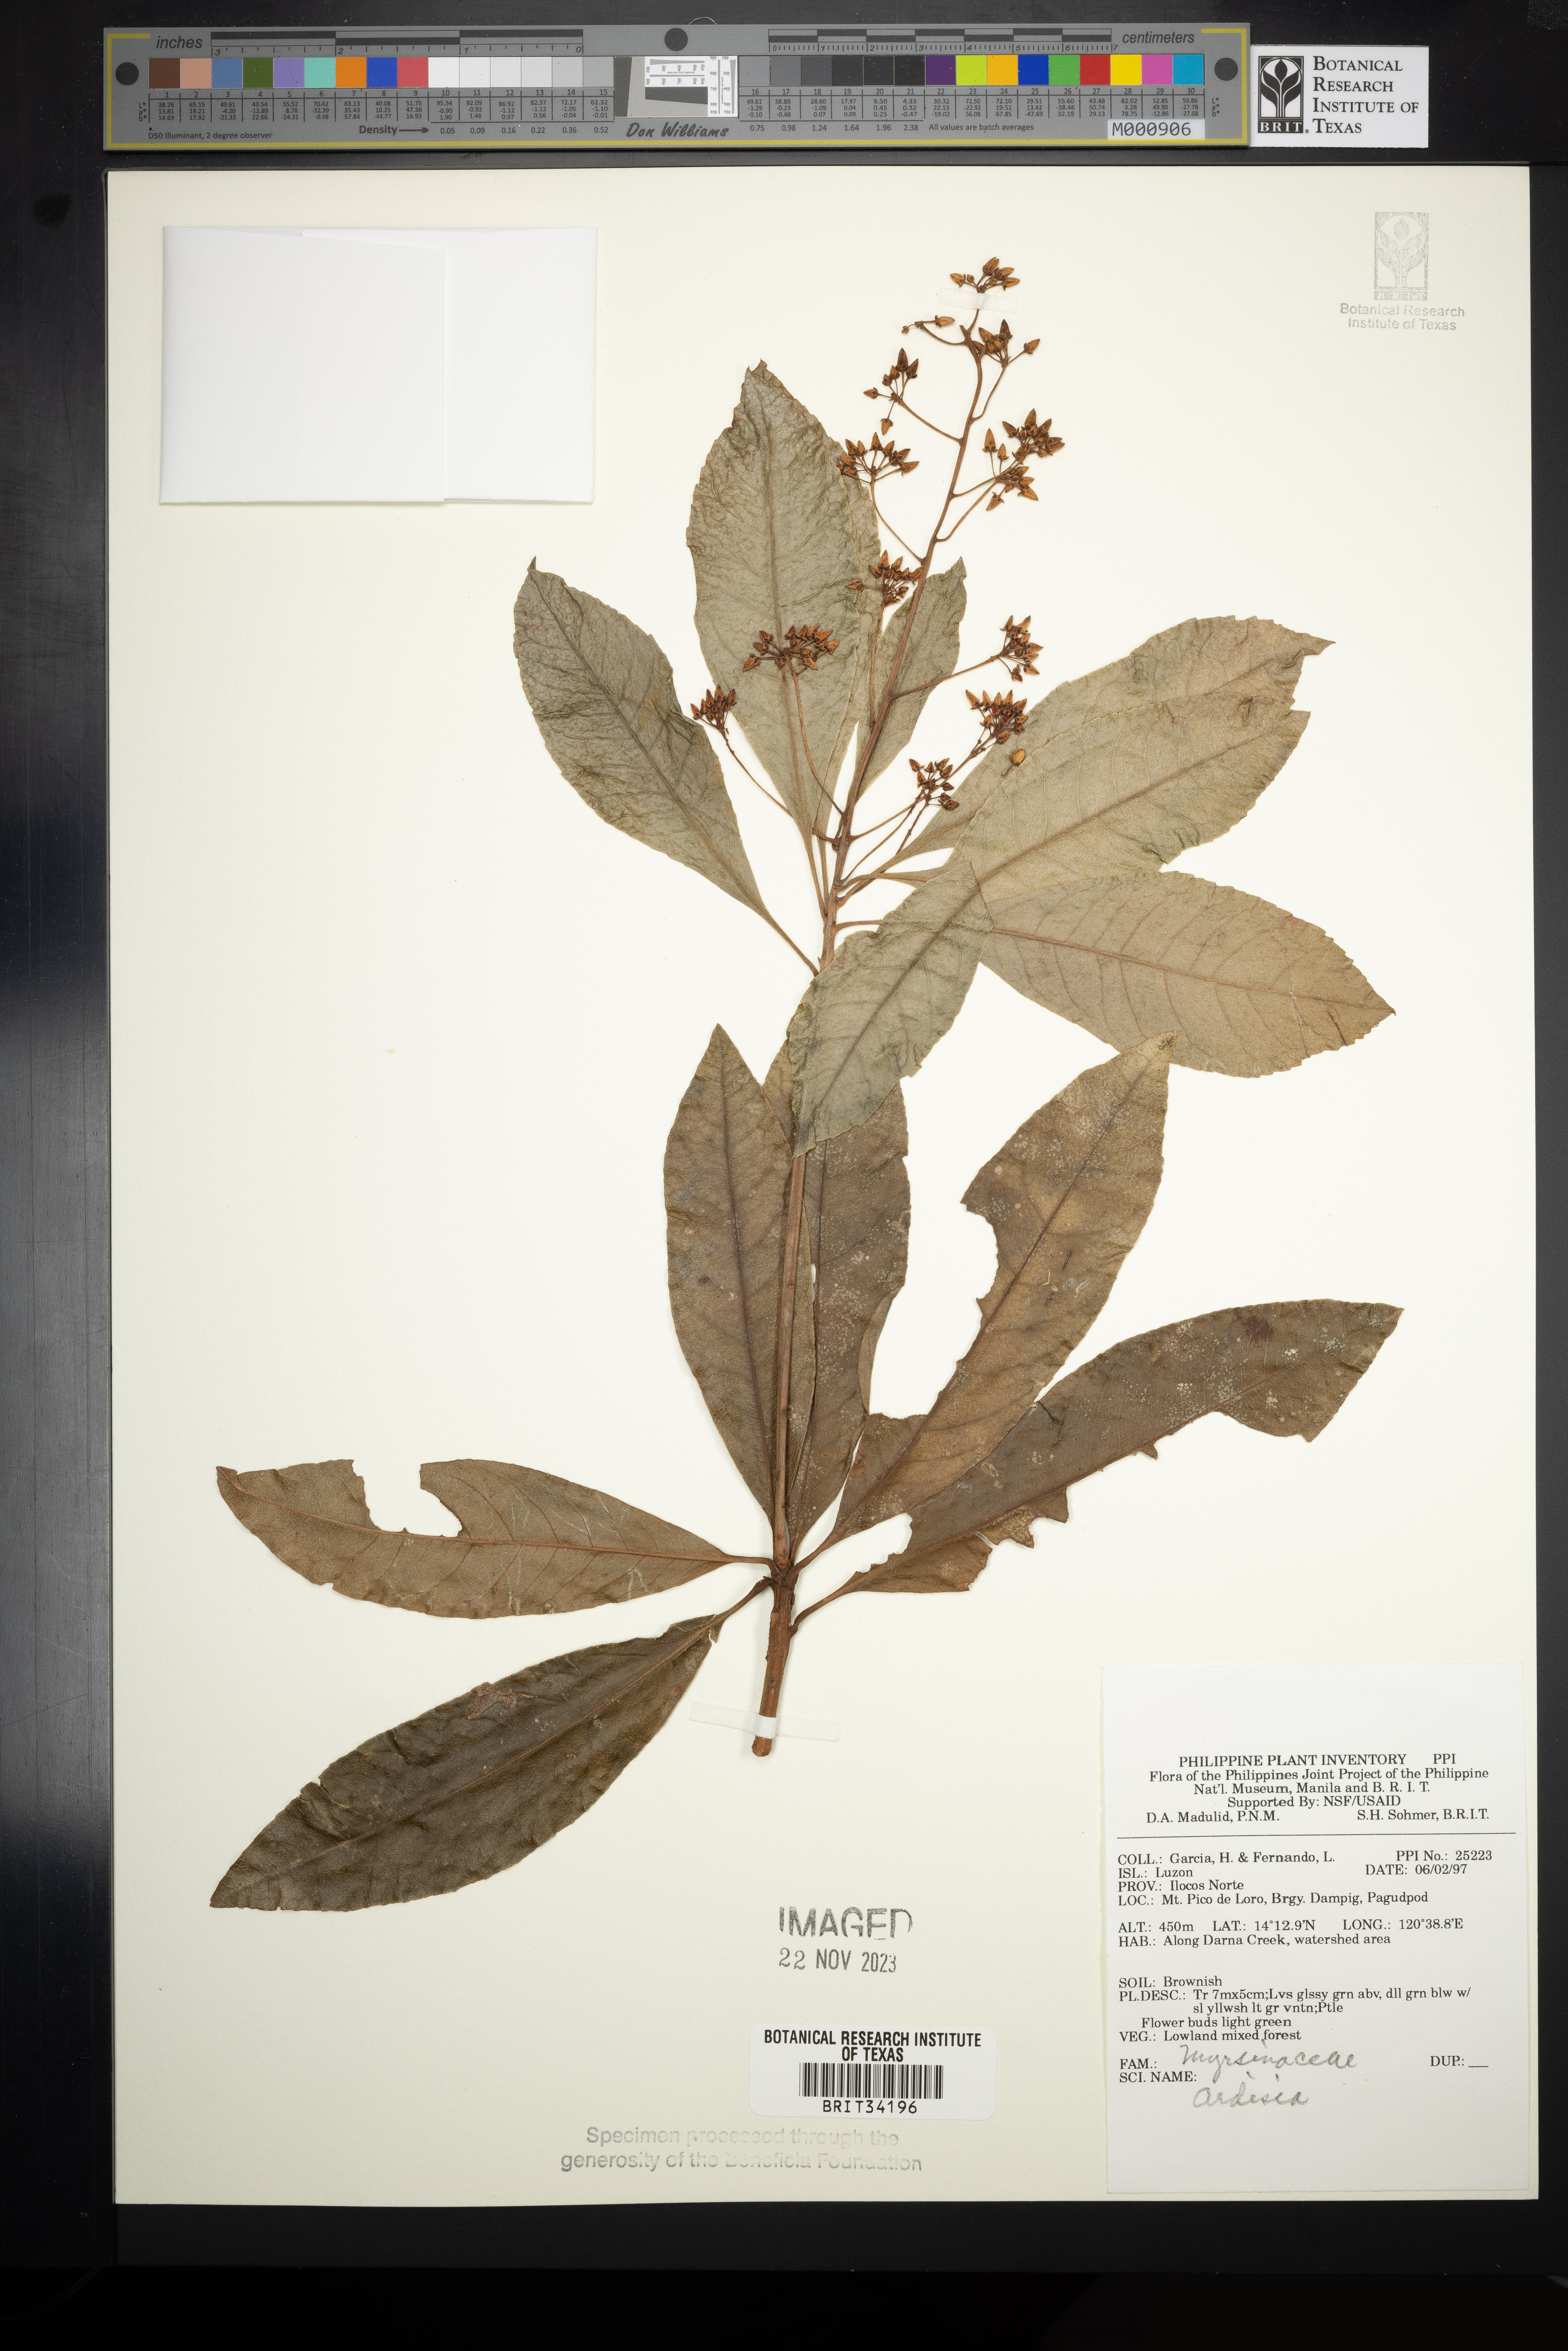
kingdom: Plantae
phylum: Tracheophyta
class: Magnoliopsida
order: Ericales
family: Primulaceae
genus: Ardisia
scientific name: Ardisia
